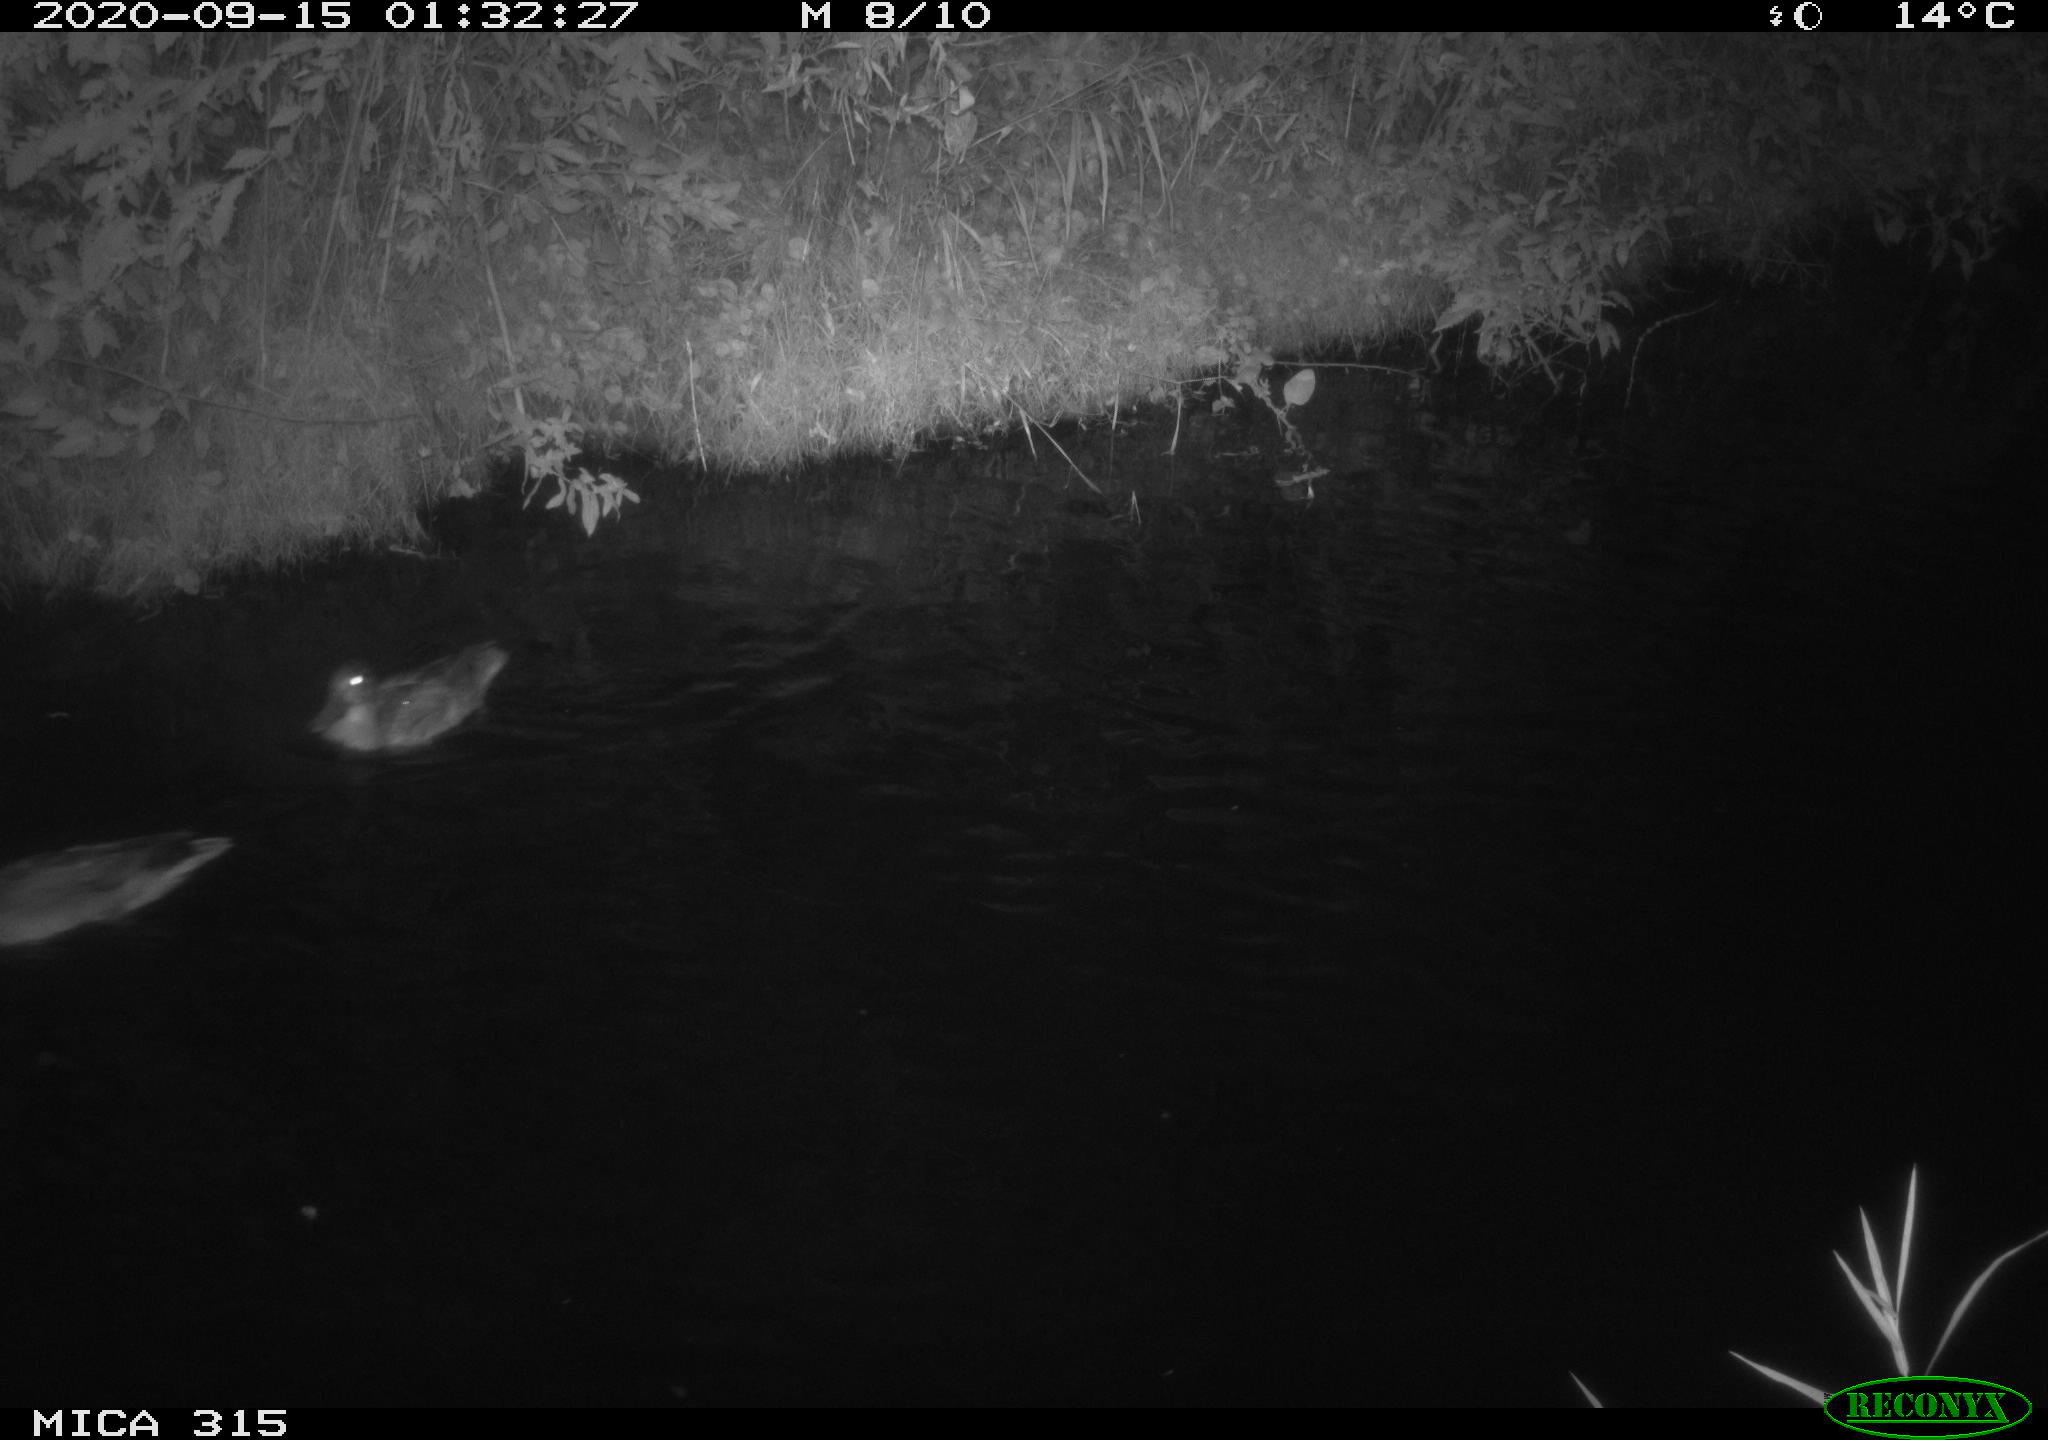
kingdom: Animalia
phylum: Chordata
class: Aves
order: Anseriformes
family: Anatidae
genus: Anas
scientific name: Anas platyrhynchos
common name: Mallard
